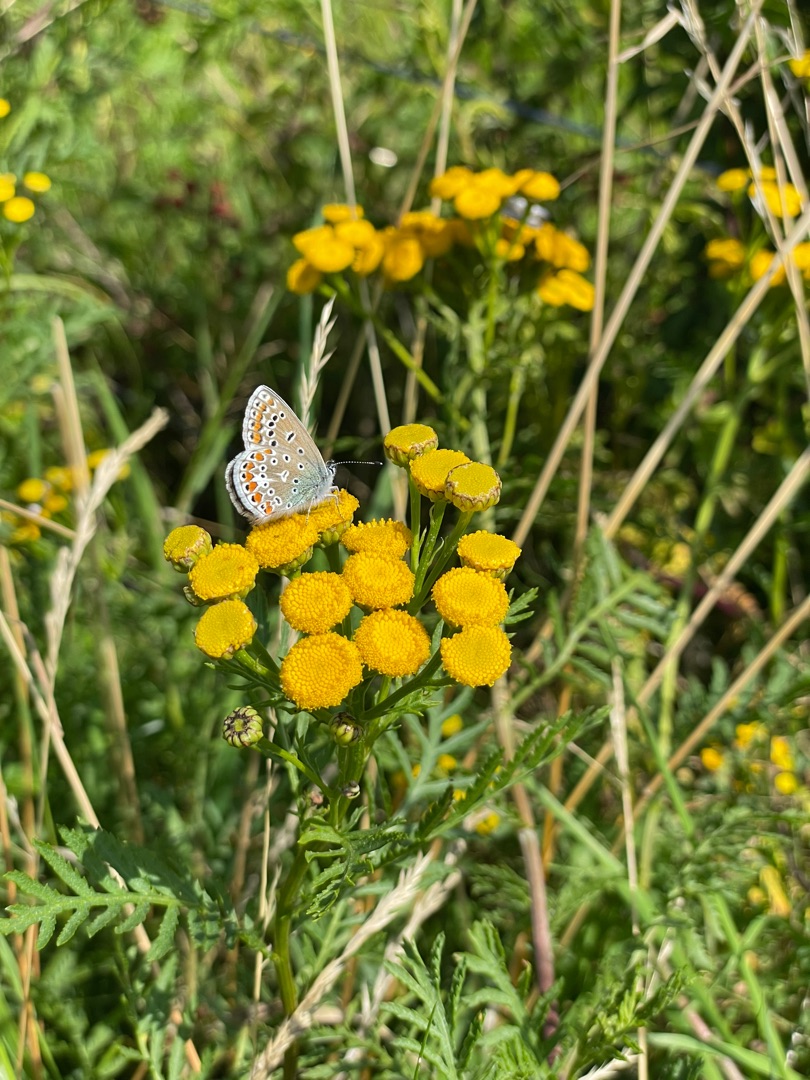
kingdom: Animalia
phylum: Arthropoda
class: Insecta
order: Lepidoptera
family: Lycaenidae
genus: Polyommatus
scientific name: Polyommatus icarus
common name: Almindelig blåfugl
